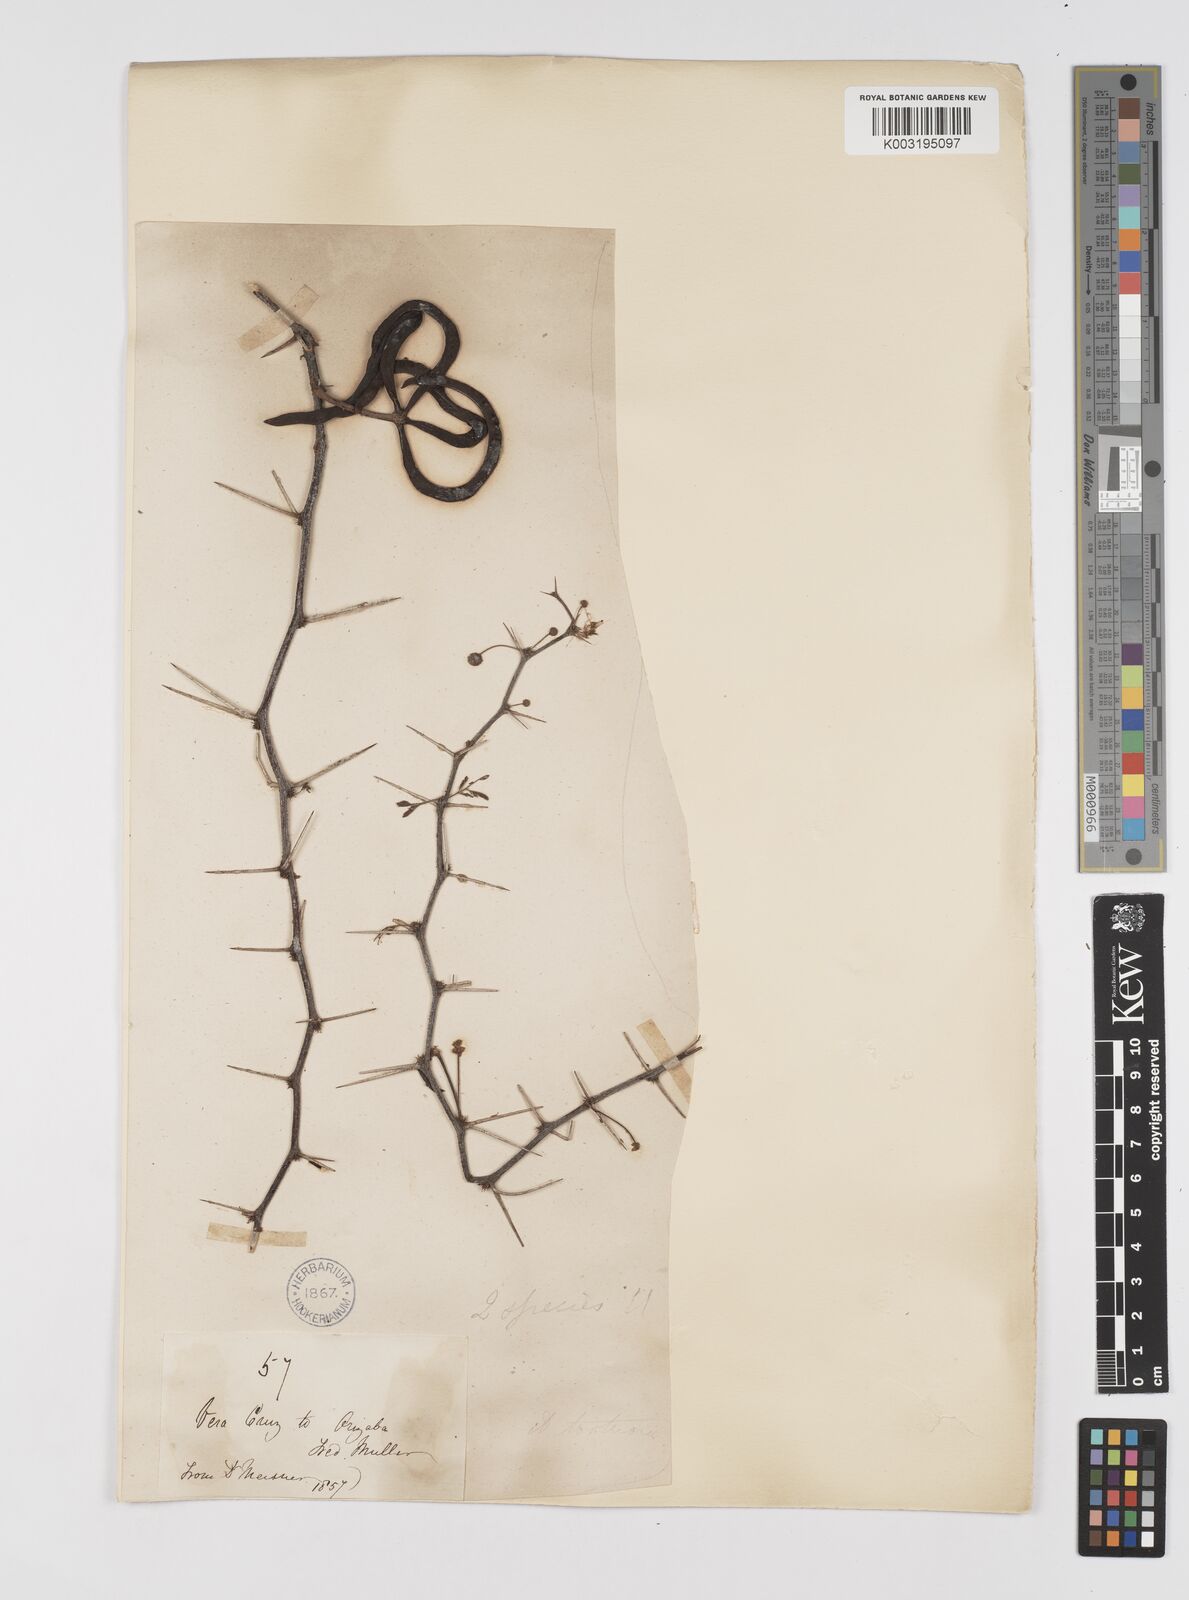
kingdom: Plantae
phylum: Tracheophyta
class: Magnoliopsida
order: Fabales
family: Fabaceae
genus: Vachellia
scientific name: Vachellia schaffneri
